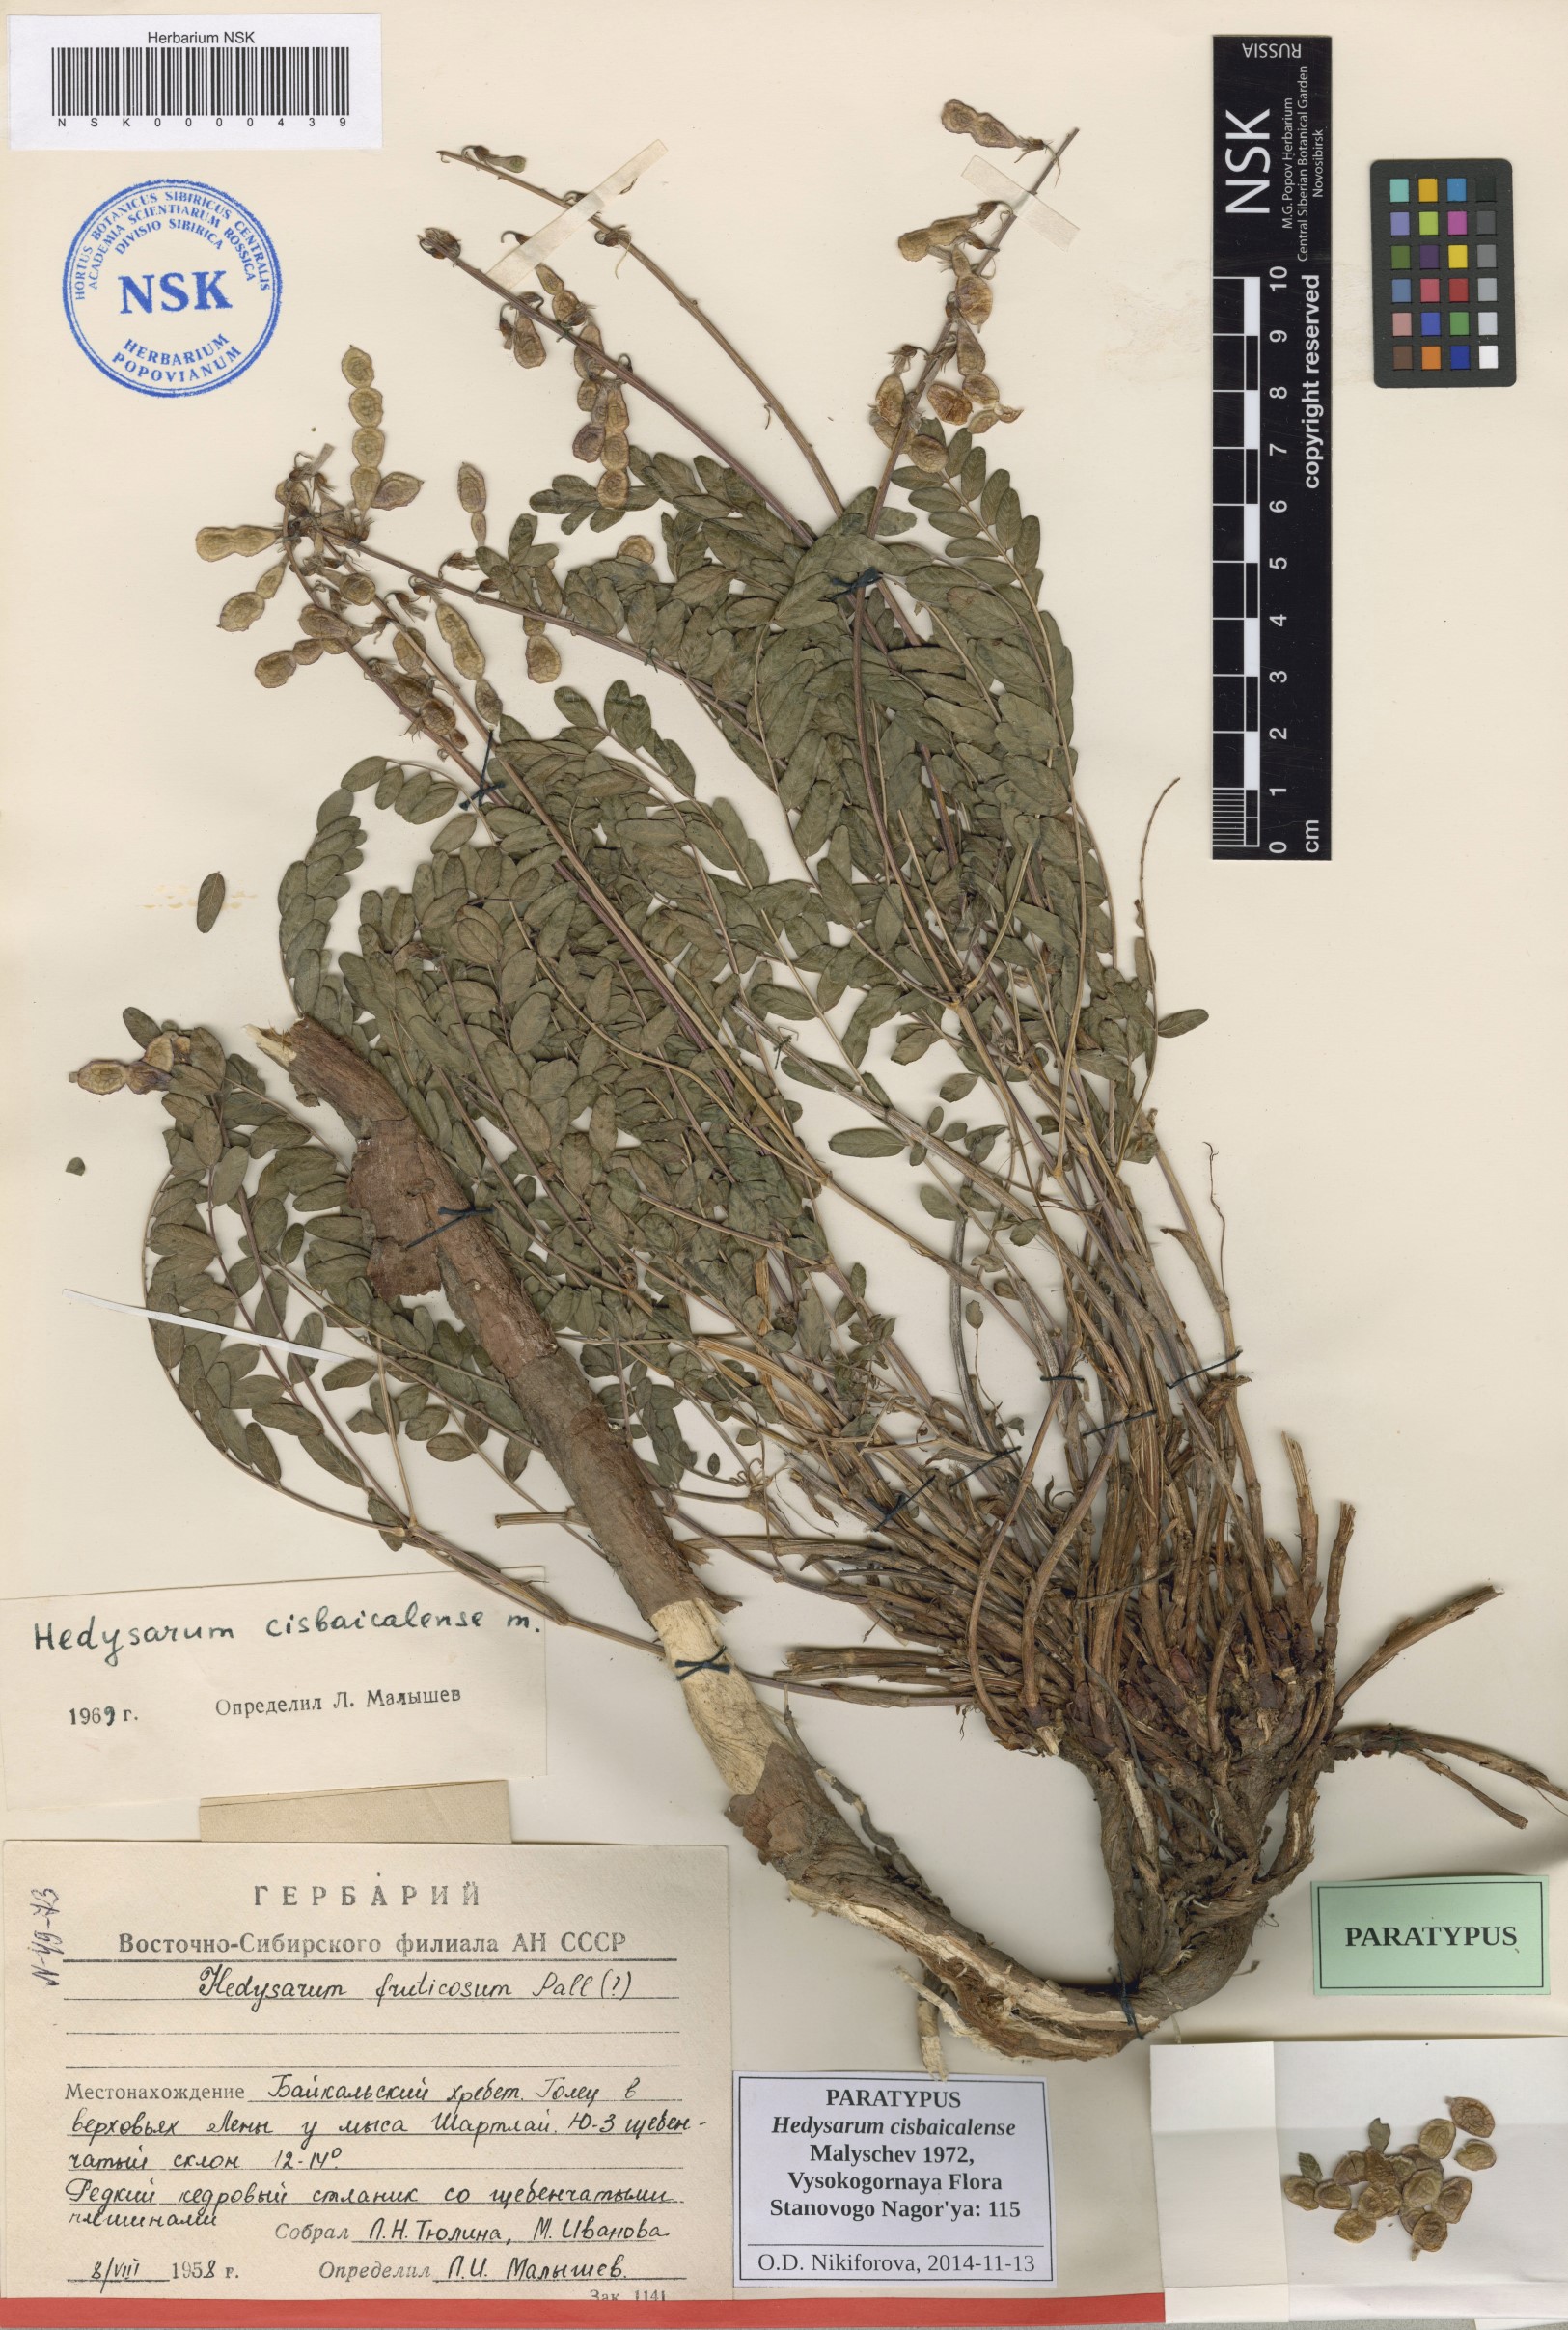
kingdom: Plantae
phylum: Tracheophyta
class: Magnoliopsida
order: Fabales
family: Fabaceae
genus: Hedysarum
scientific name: Hedysarum cisbaicalense
